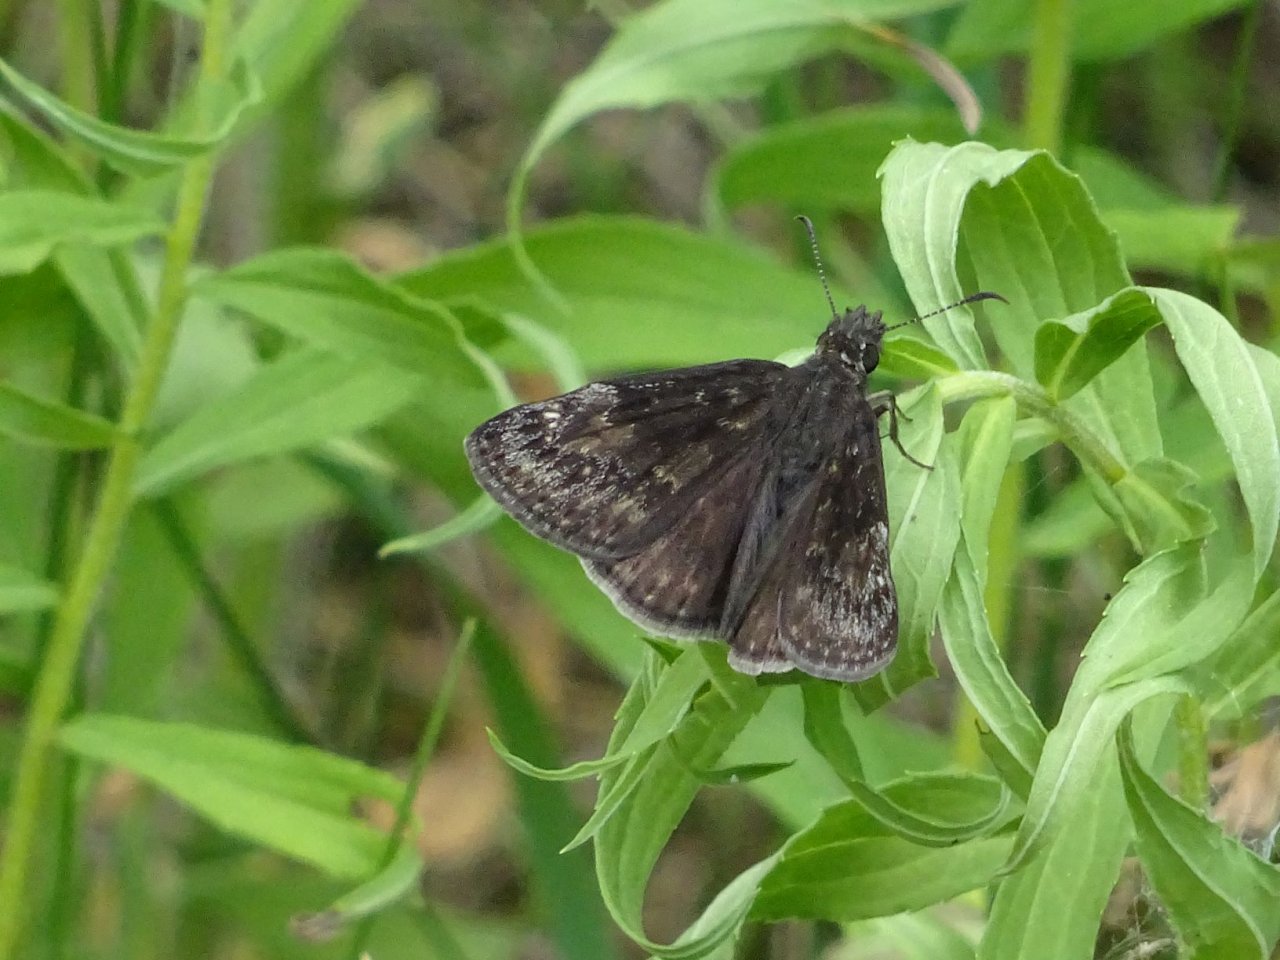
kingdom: Animalia
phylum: Arthropoda
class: Insecta
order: Lepidoptera
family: Hesperiidae
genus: Gesta
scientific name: Gesta
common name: Wild Indigo Duskywing
